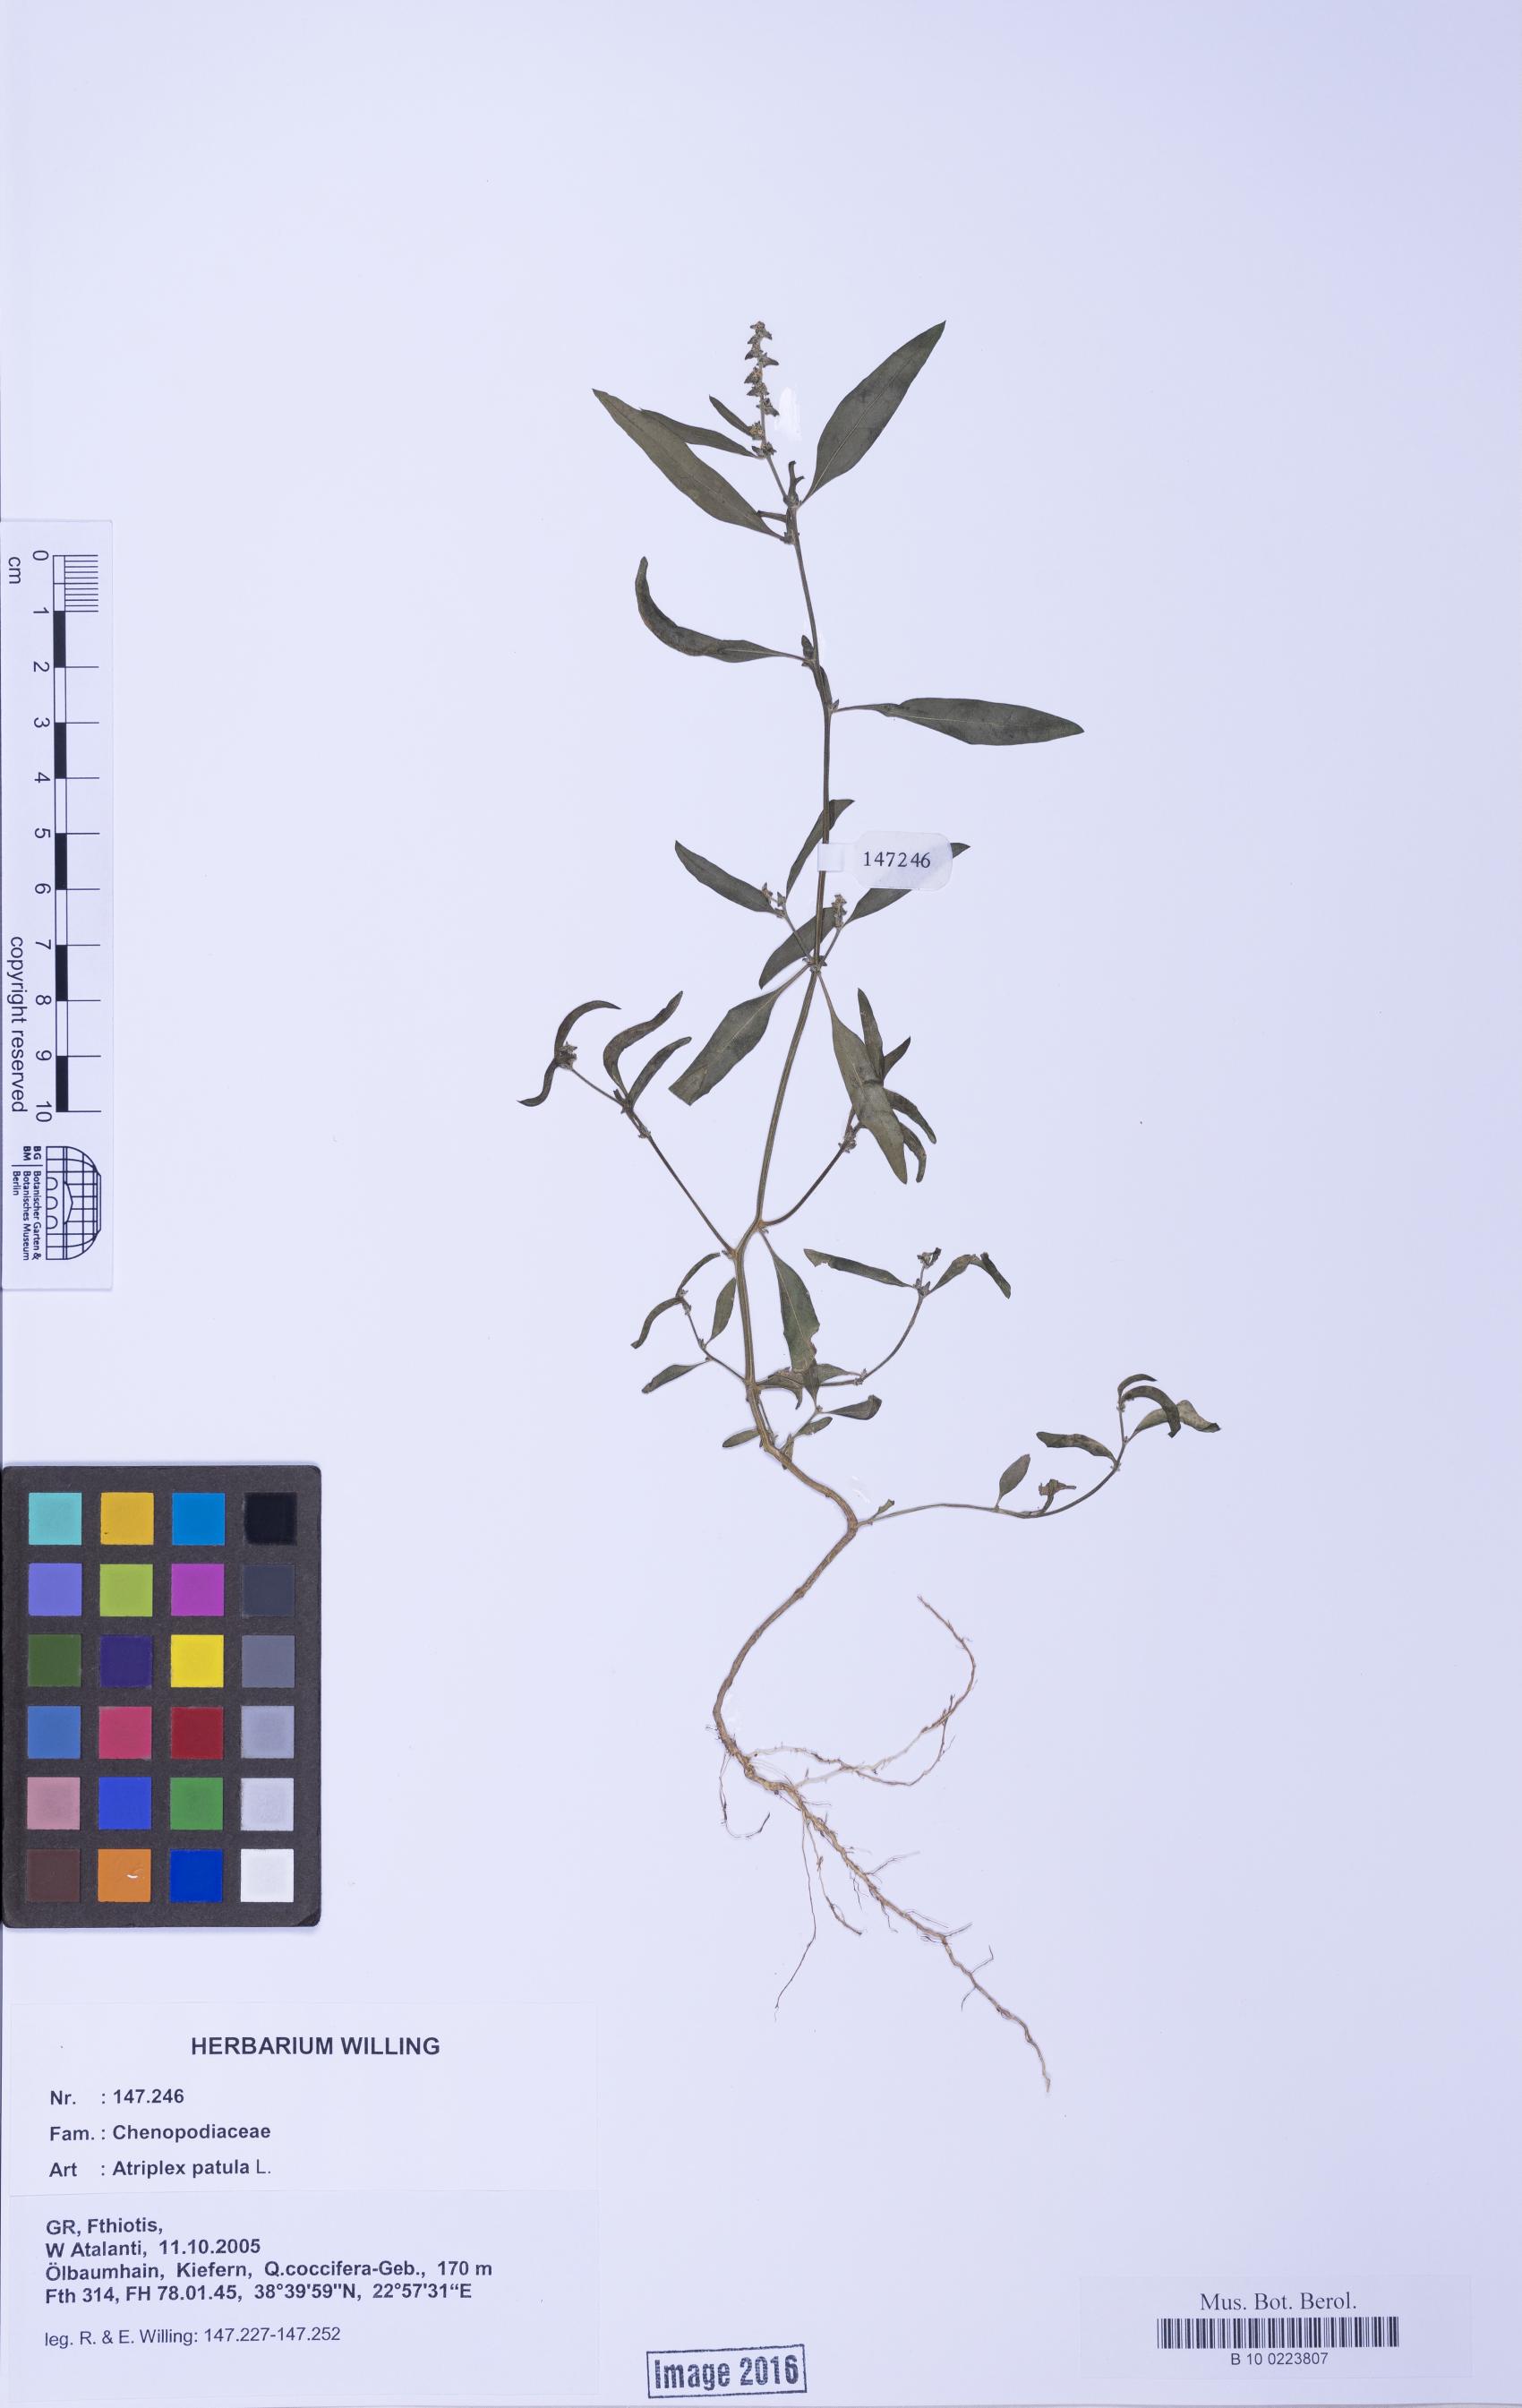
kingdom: Plantae
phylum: Tracheophyta
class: Magnoliopsida
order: Caryophyllales
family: Amaranthaceae
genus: Atriplex
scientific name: Atriplex patula
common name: Common orache
